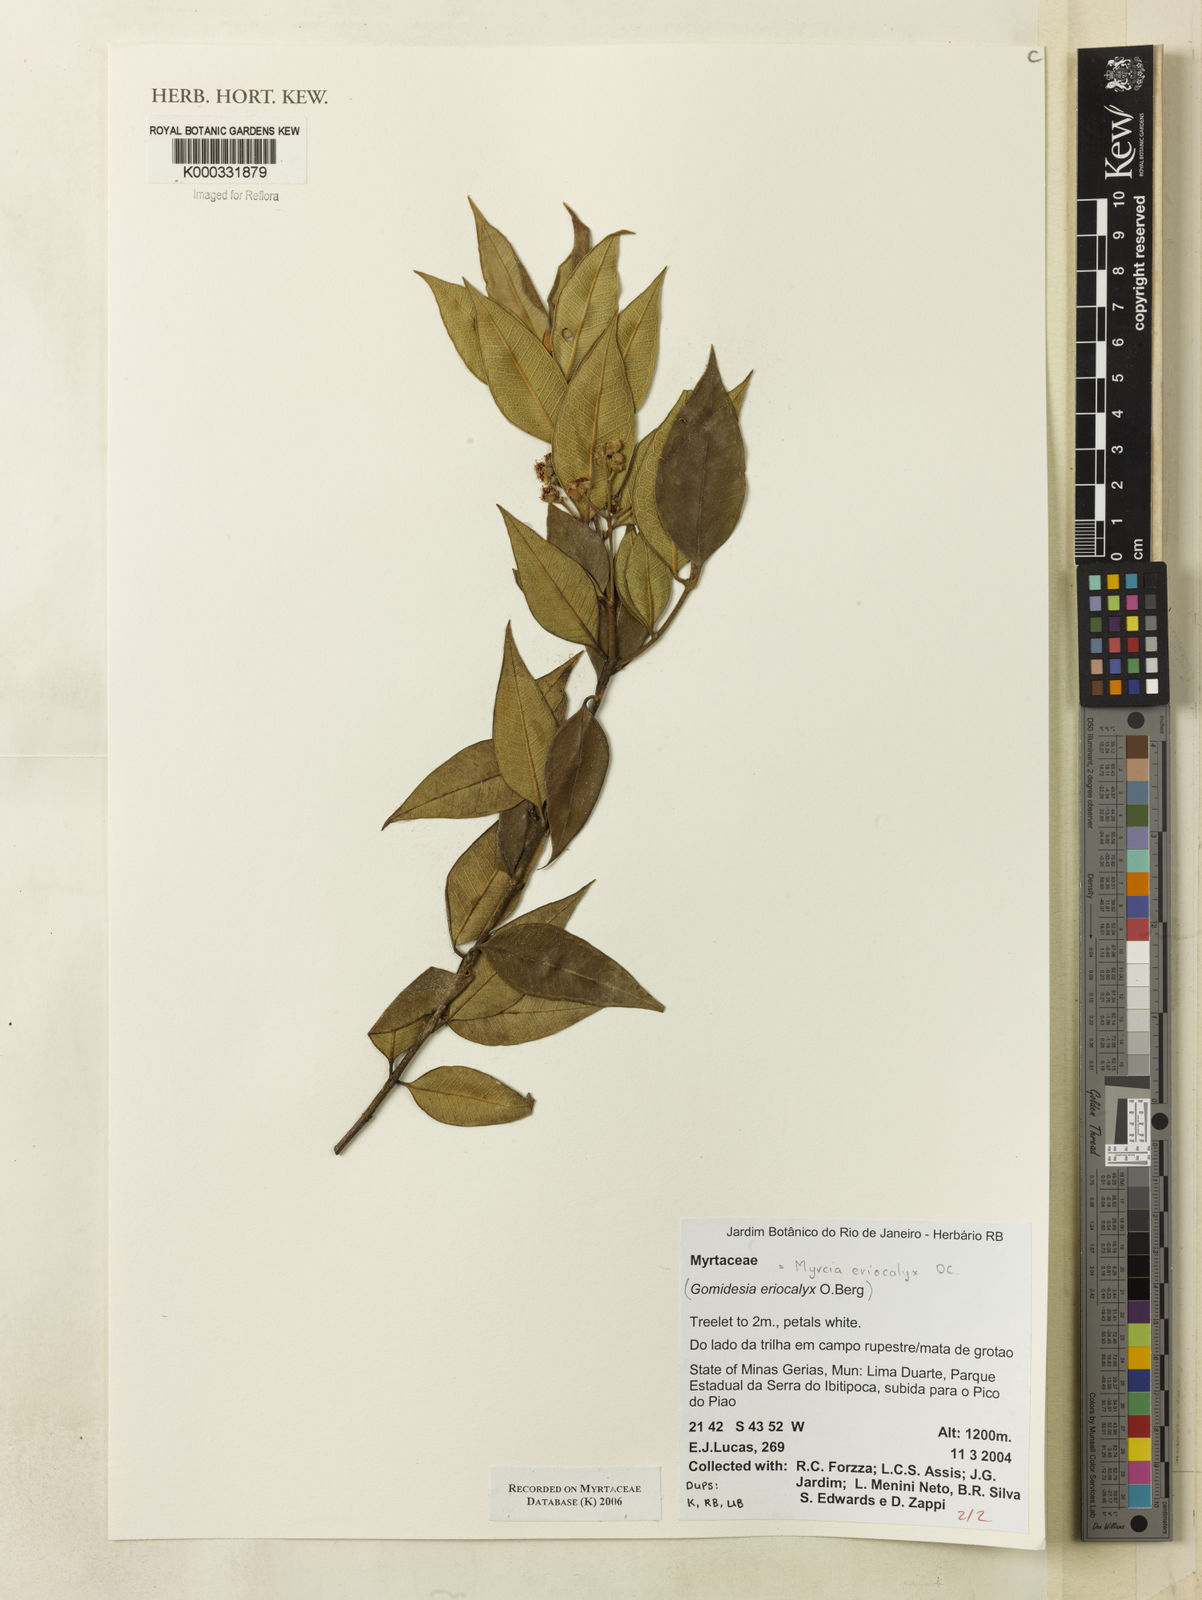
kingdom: Plantae
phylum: Tracheophyta
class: Magnoliopsida
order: Myrtales
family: Myrtaceae
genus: Myrcia
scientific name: Myrcia eriocalyx
